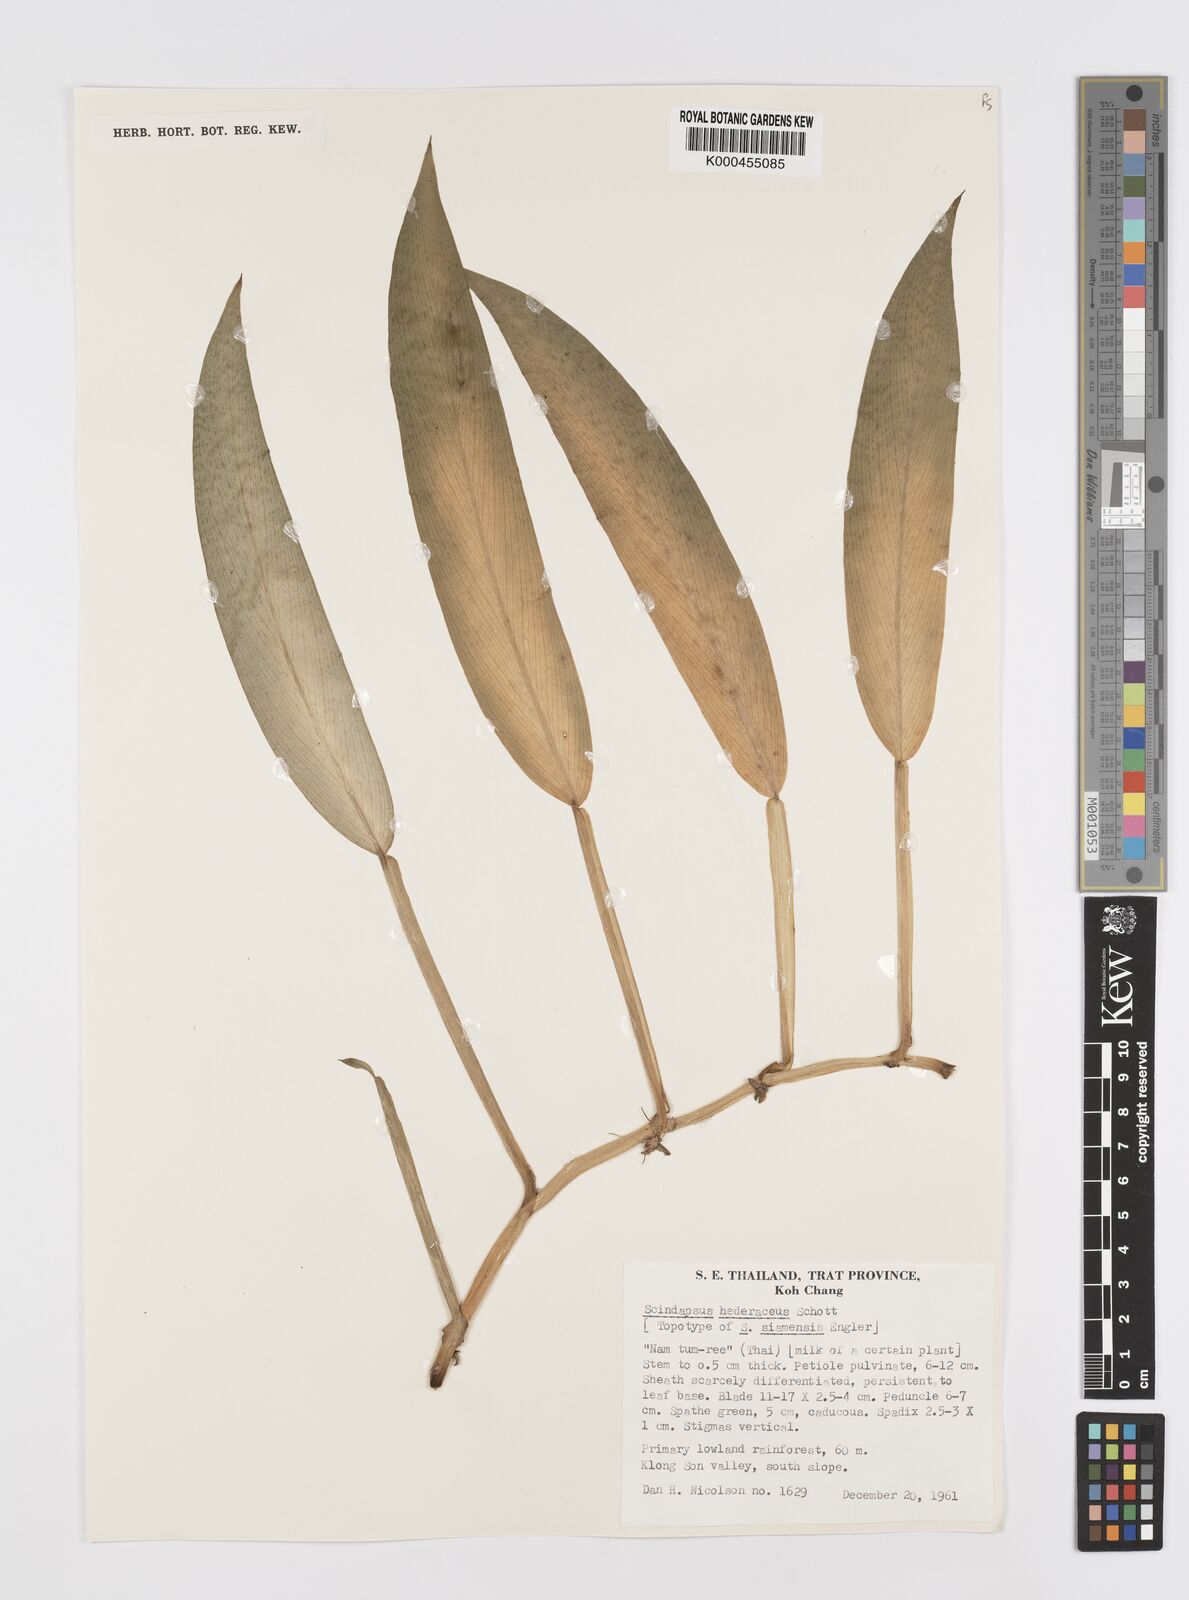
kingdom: Plantae
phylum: Tracheophyta
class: Liliopsida
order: Alismatales
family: Araceae
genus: Scindapsus
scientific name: Scindapsus hederaceus
